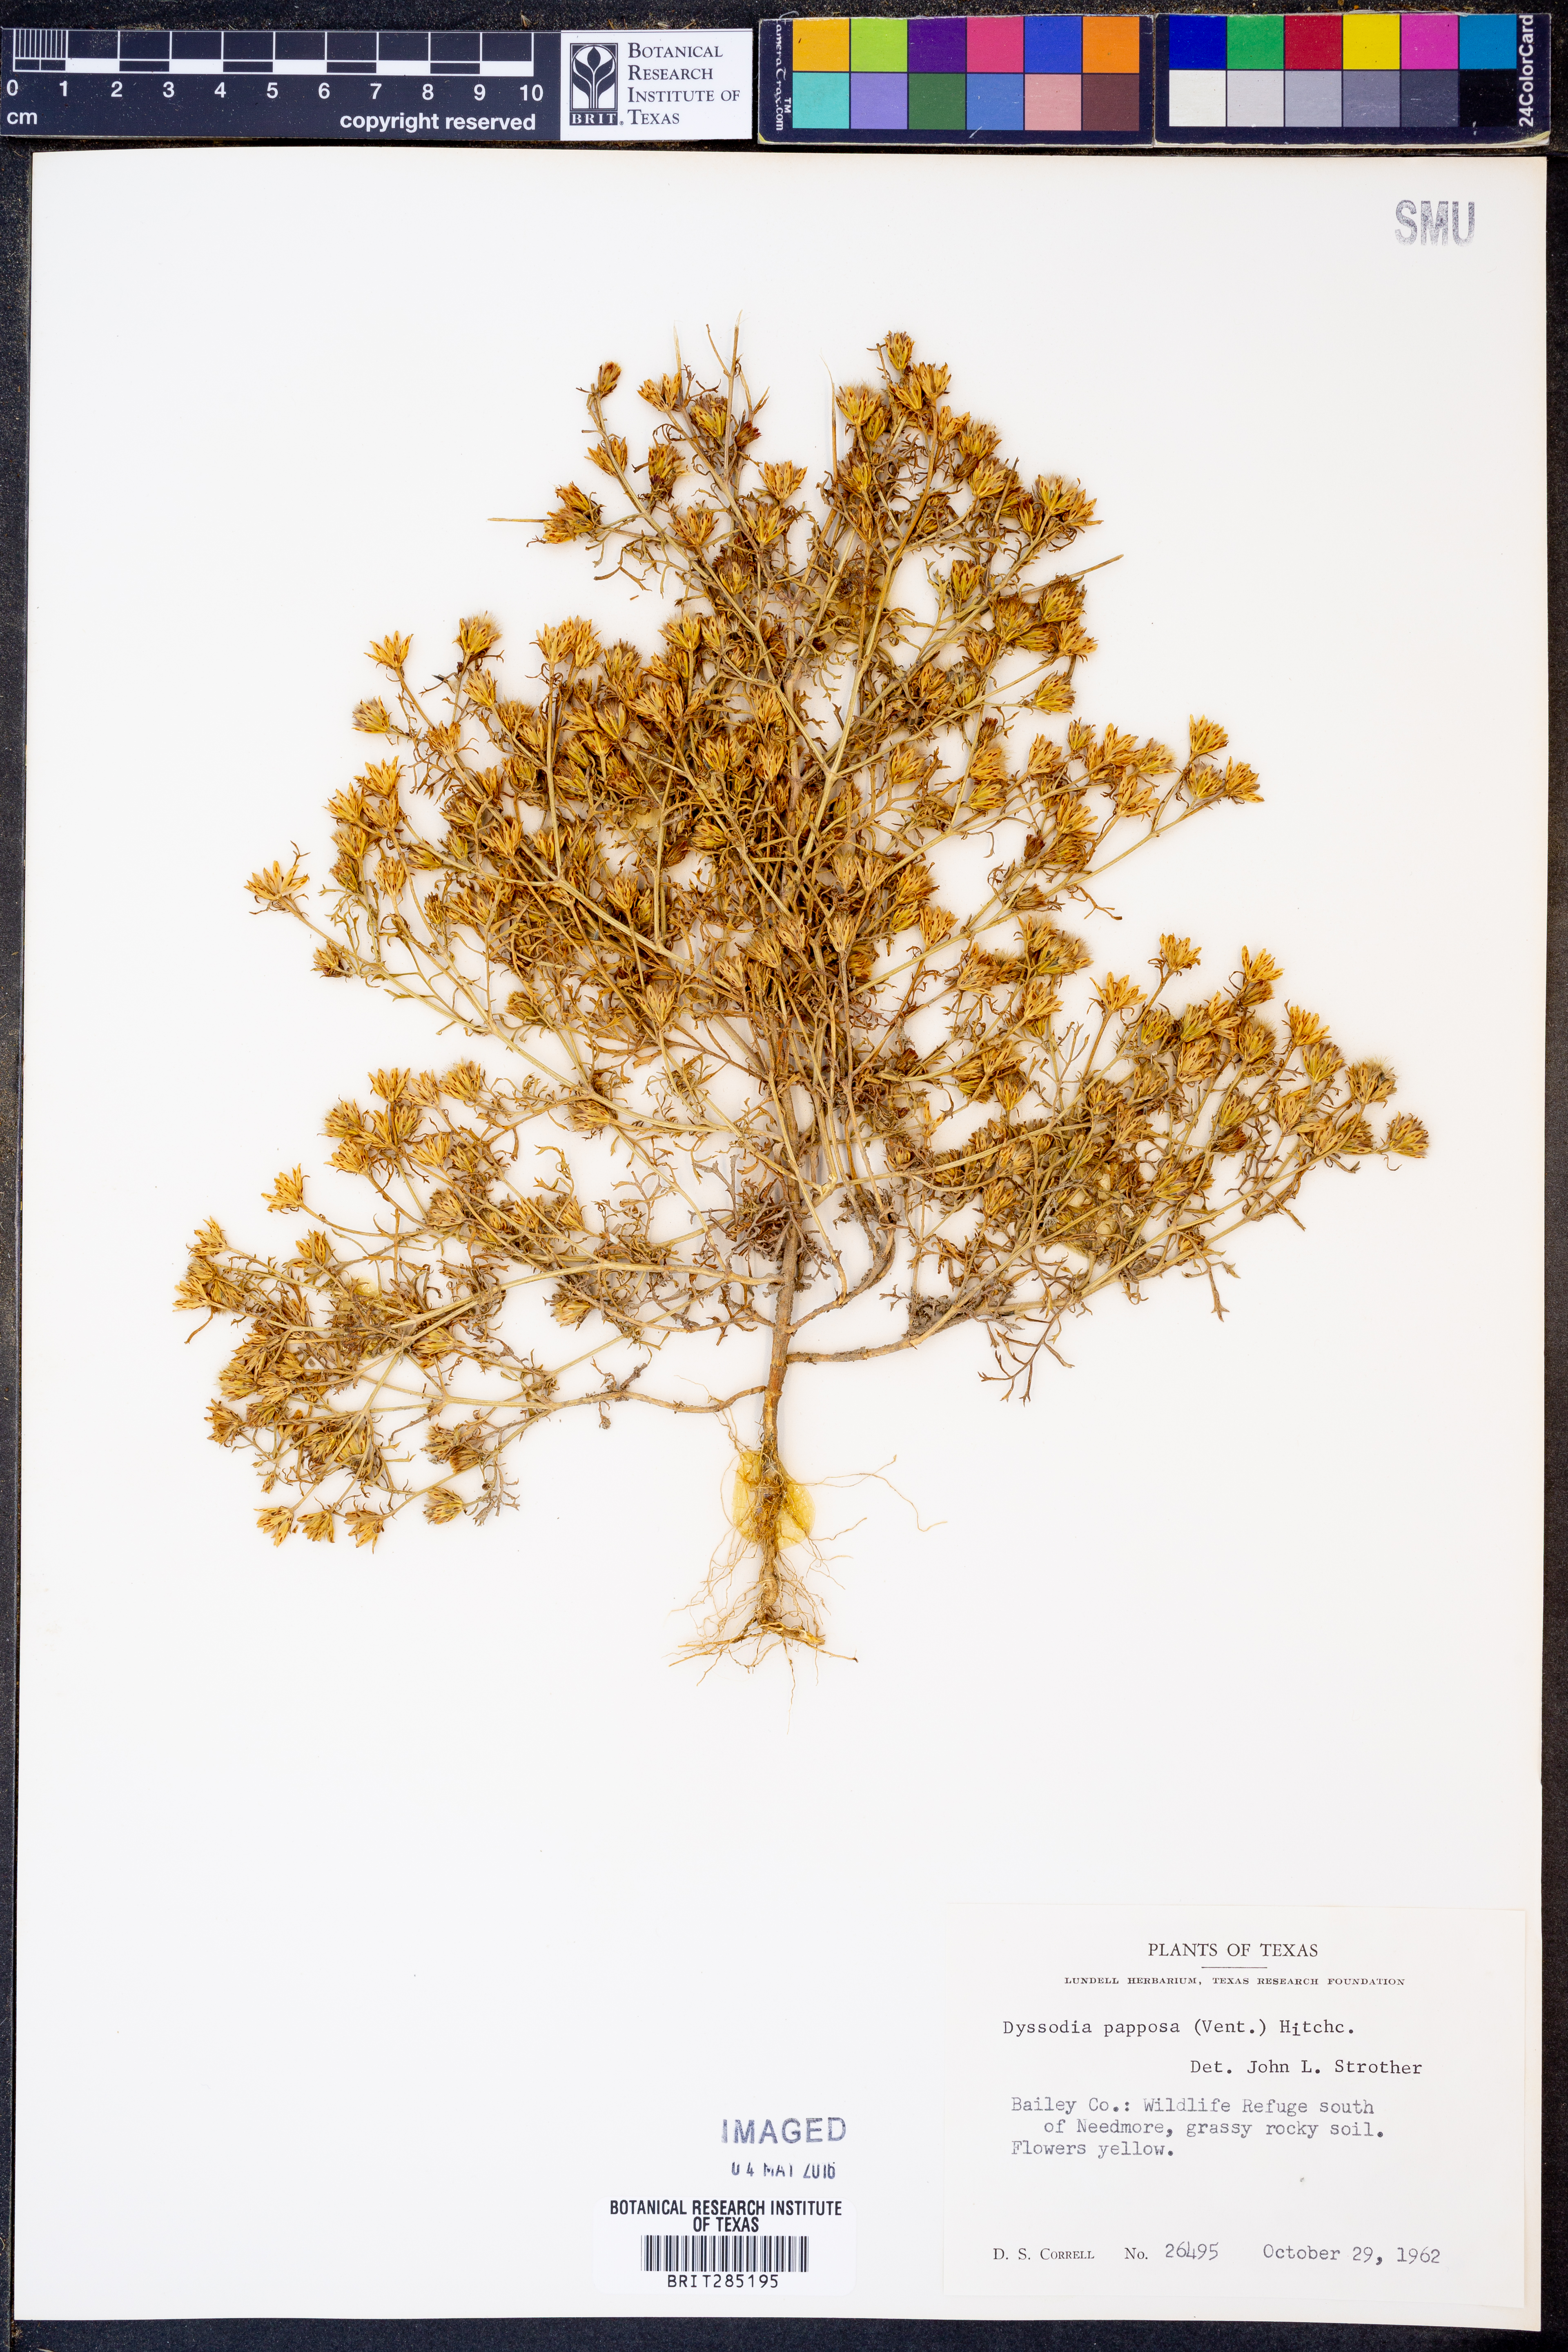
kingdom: Plantae
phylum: Tracheophyta
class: Magnoliopsida
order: Asterales
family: Asteraceae
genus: Dyssodia
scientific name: Dyssodia papposa
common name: Dogweed
